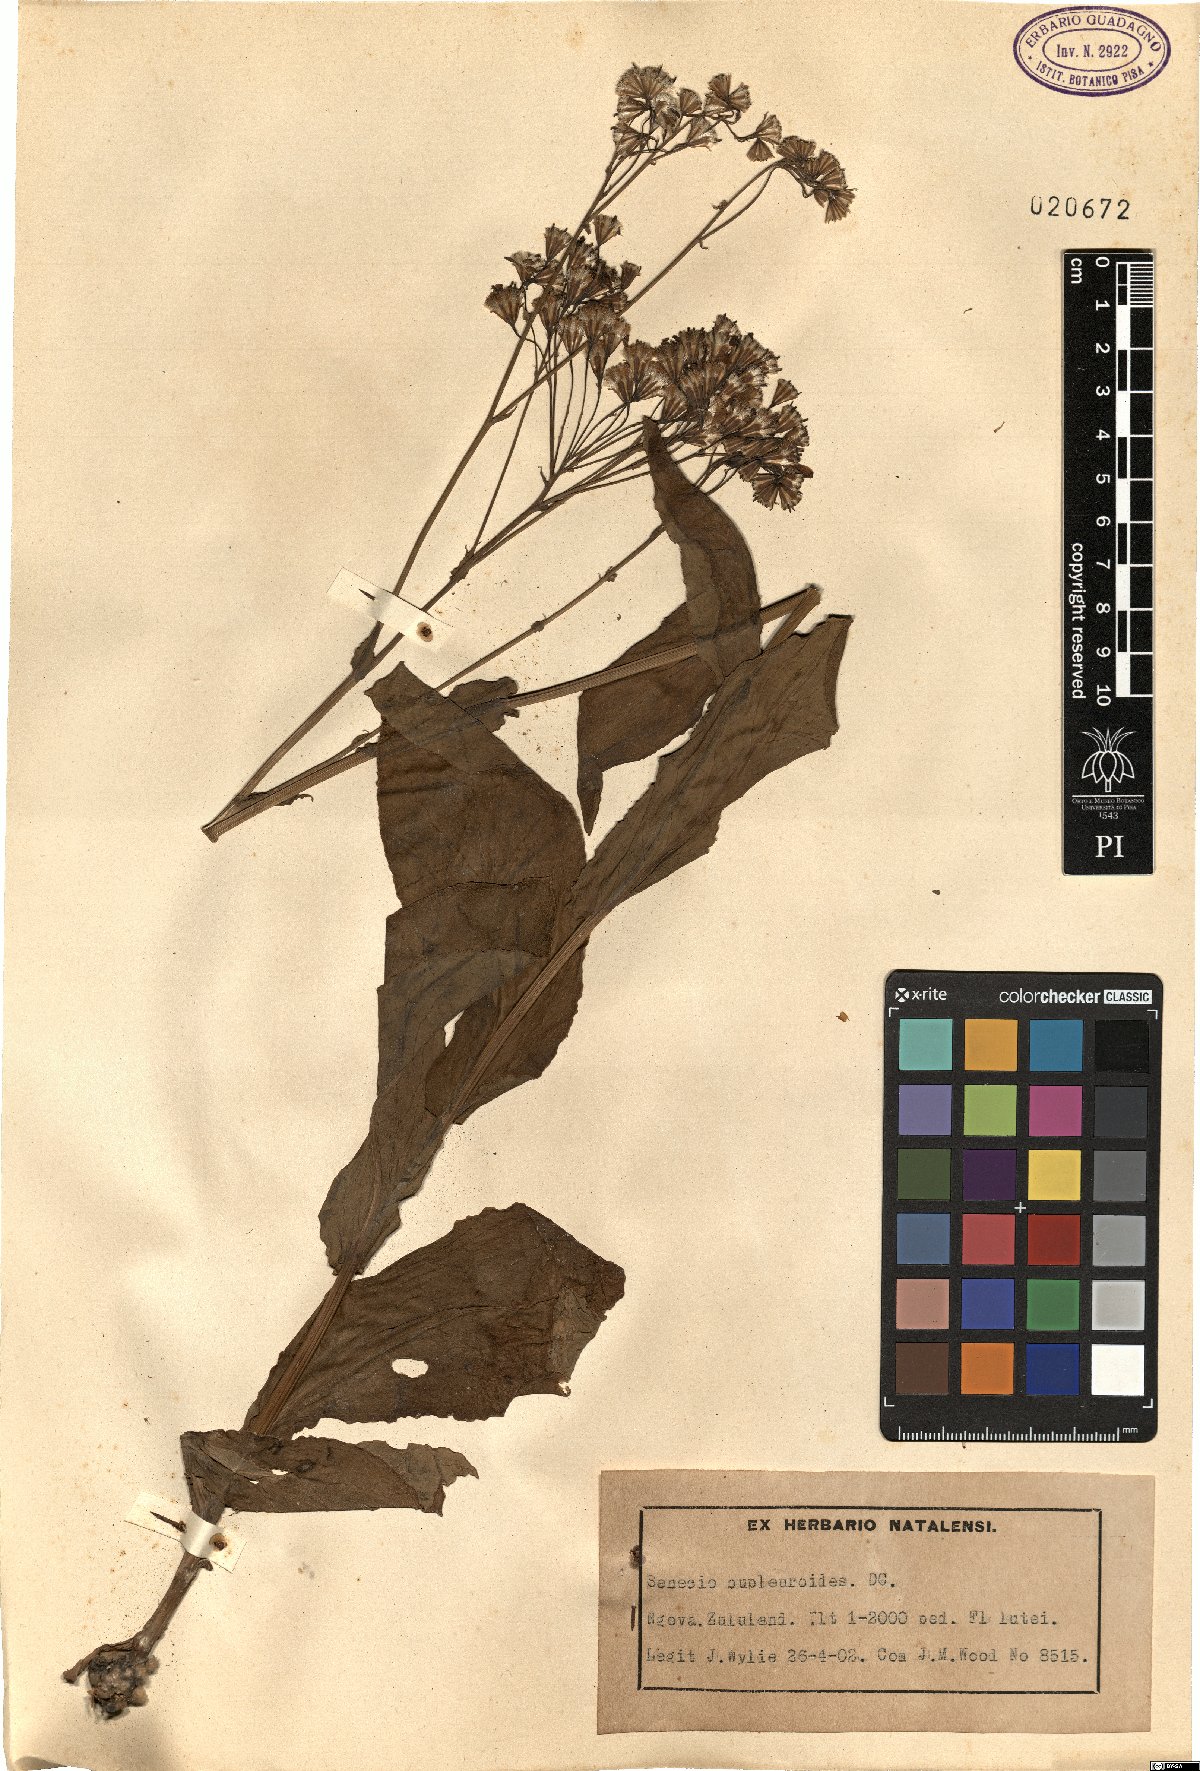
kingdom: Plantae
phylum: Tracheophyta
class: Magnoliopsida
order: Asterales
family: Asteraceae
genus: Senecio
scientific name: Senecio bupleuroides
